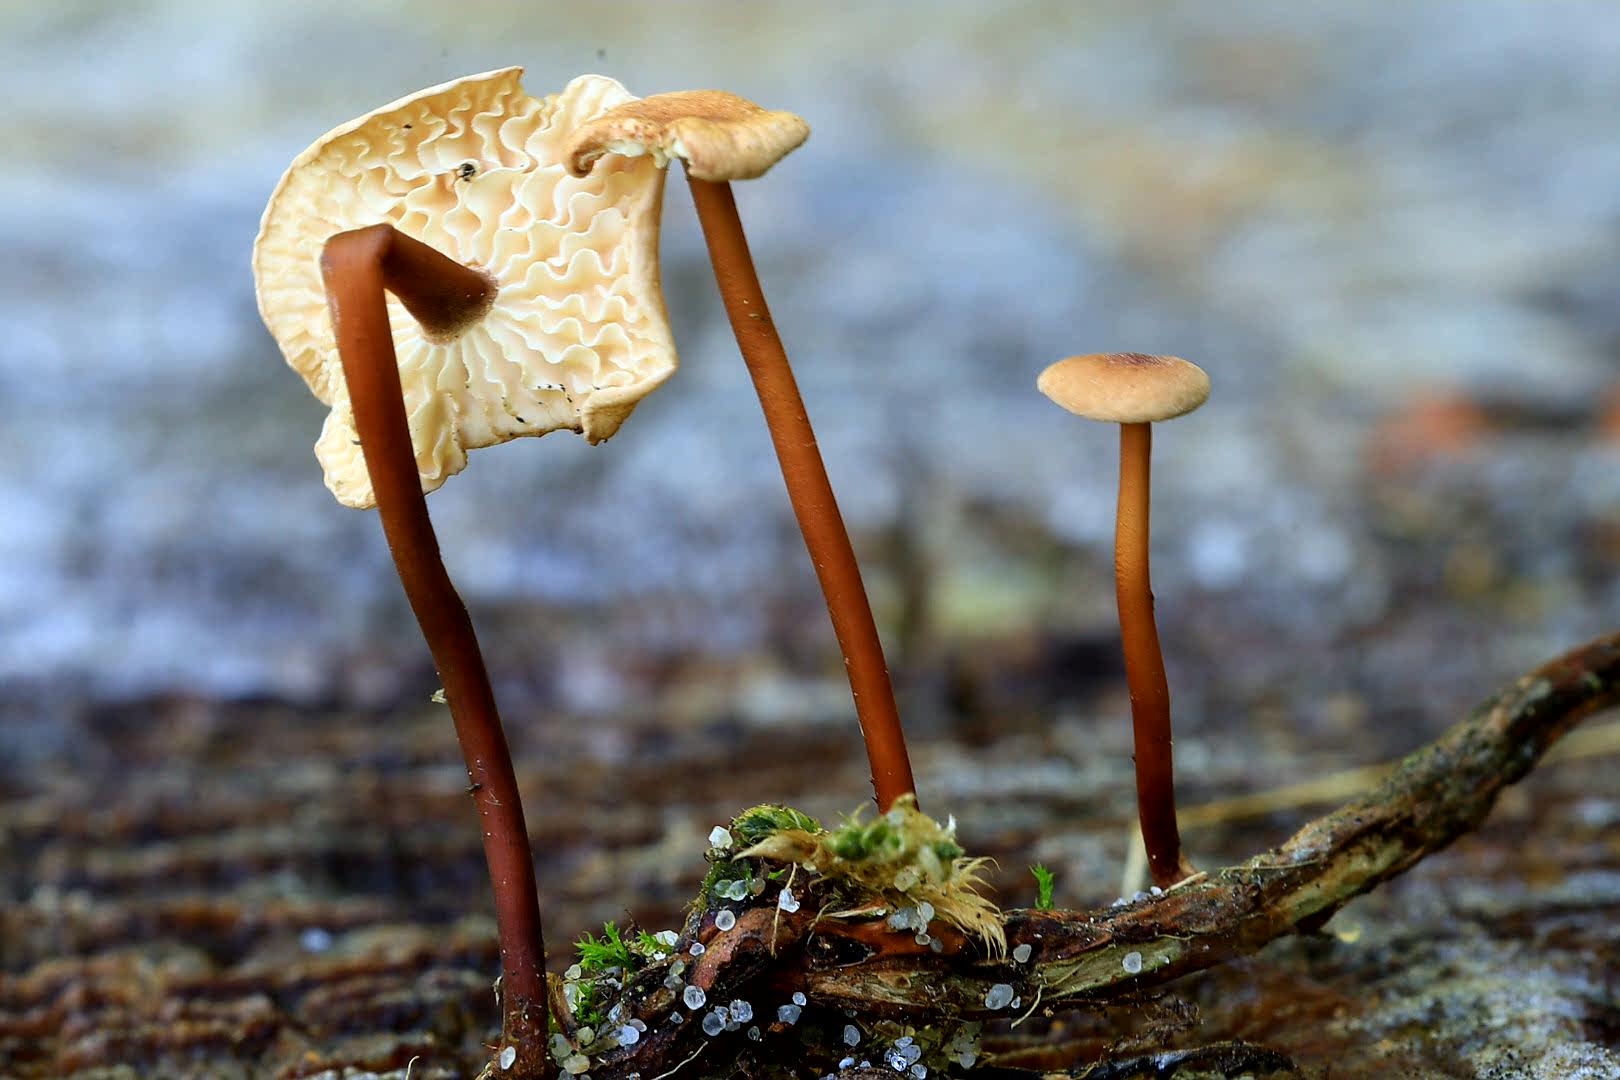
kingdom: Fungi
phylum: Basidiomycota
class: Agaricomycetes
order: Agaricales
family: Omphalotaceae
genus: Mycetinis
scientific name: Mycetinis scorodonius
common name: lille løghat
